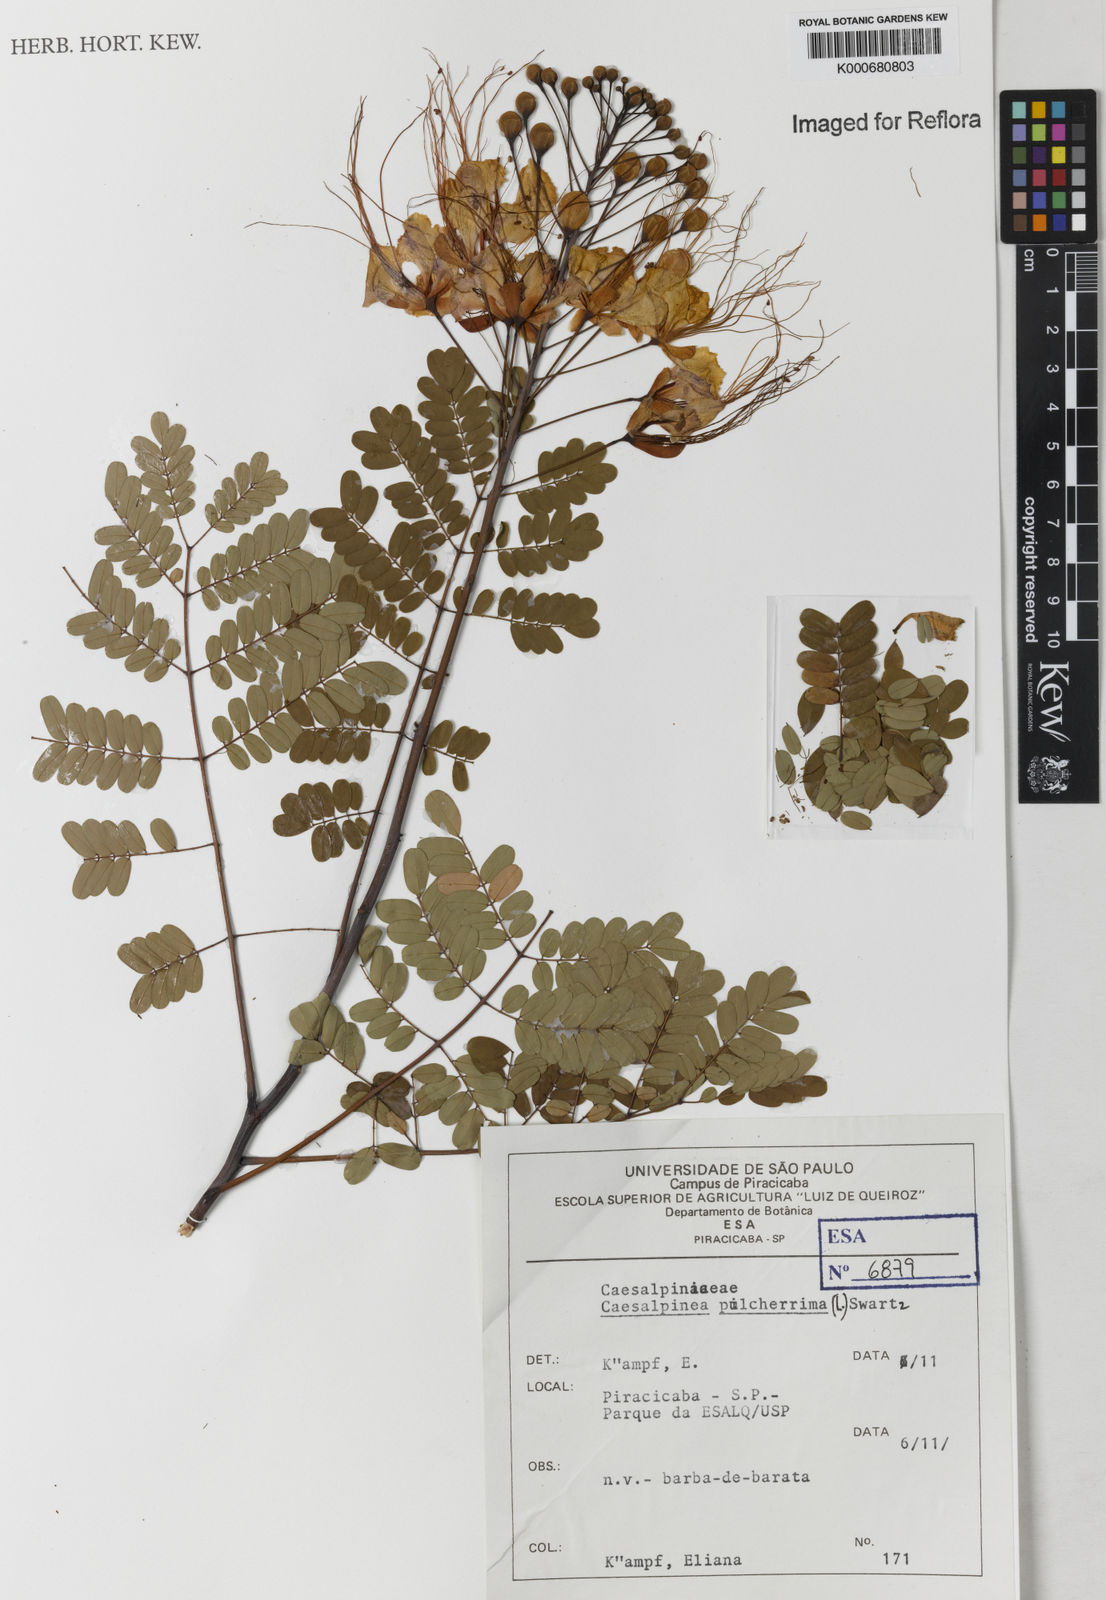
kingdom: Plantae
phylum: Tracheophyta
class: Magnoliopsida
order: Fabales
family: Fabaceae
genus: Caesalpinia
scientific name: Caesalpinia pulcherrima
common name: Pride-of-barbados
